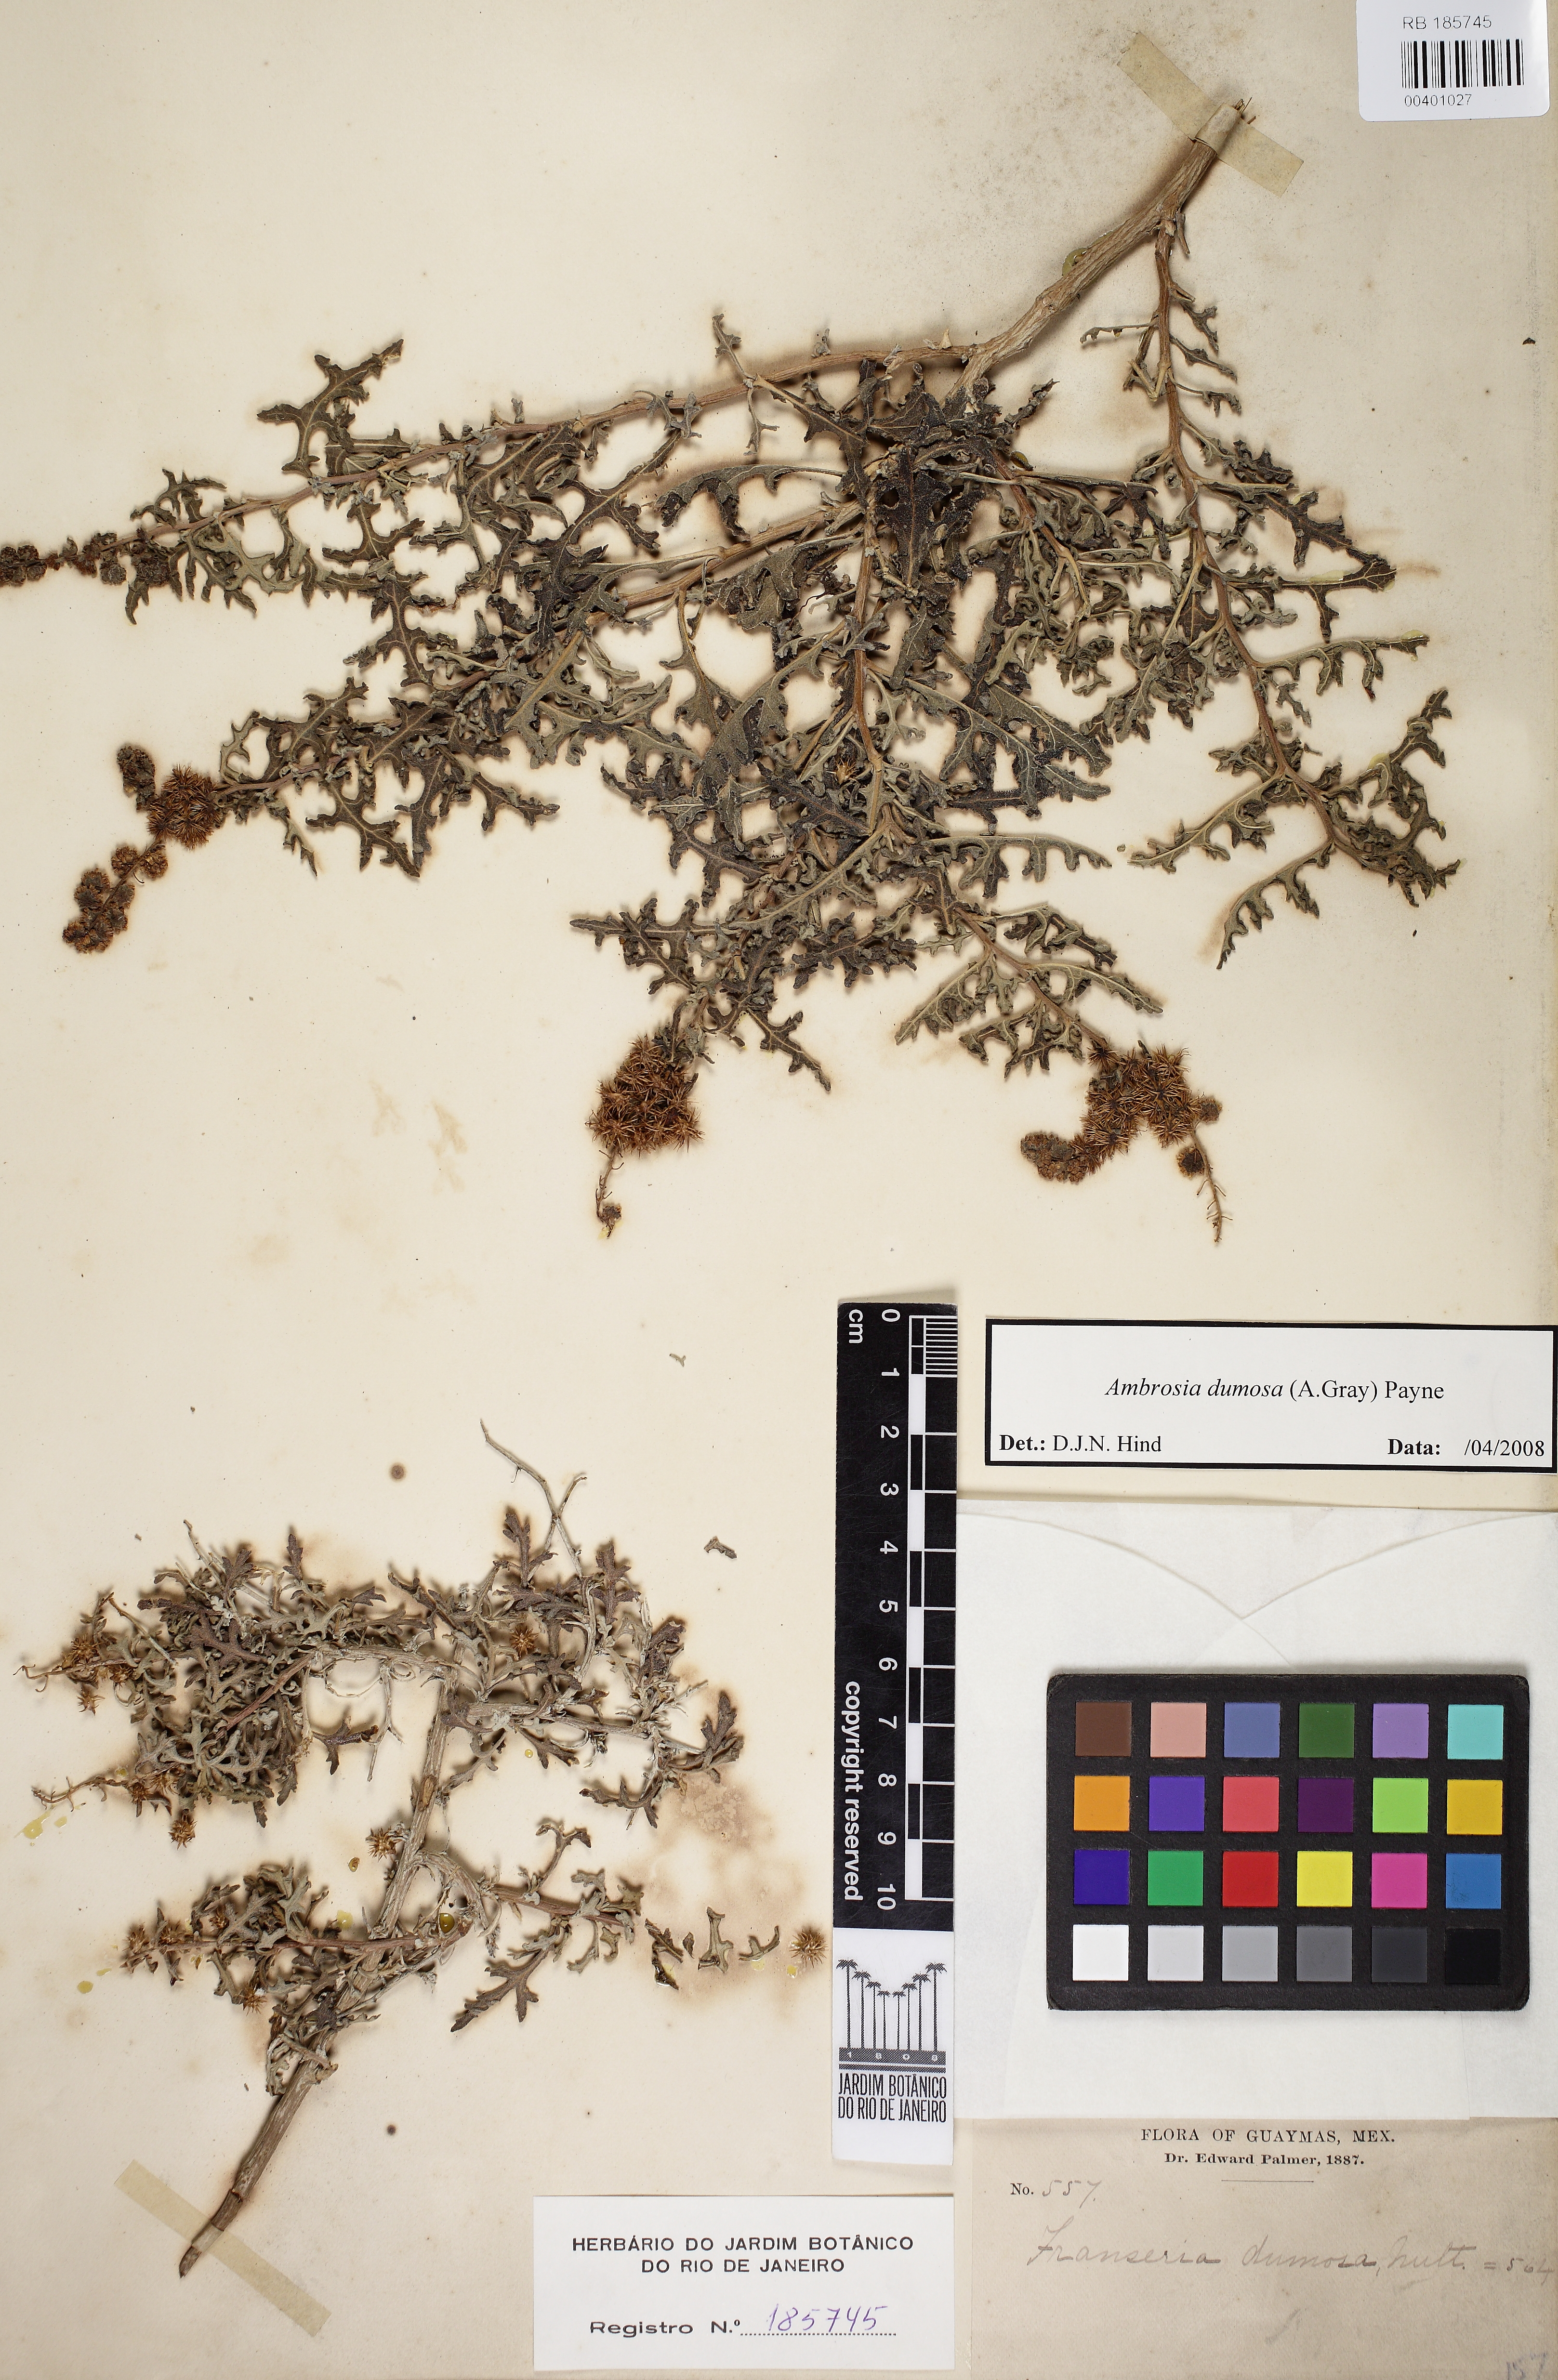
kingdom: Plantae
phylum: Tracheophyta
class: Magnoliopsida
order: Asterales
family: Asteraceae
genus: Ambrosia
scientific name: Ambrosia dumosa
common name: Bur-sage
